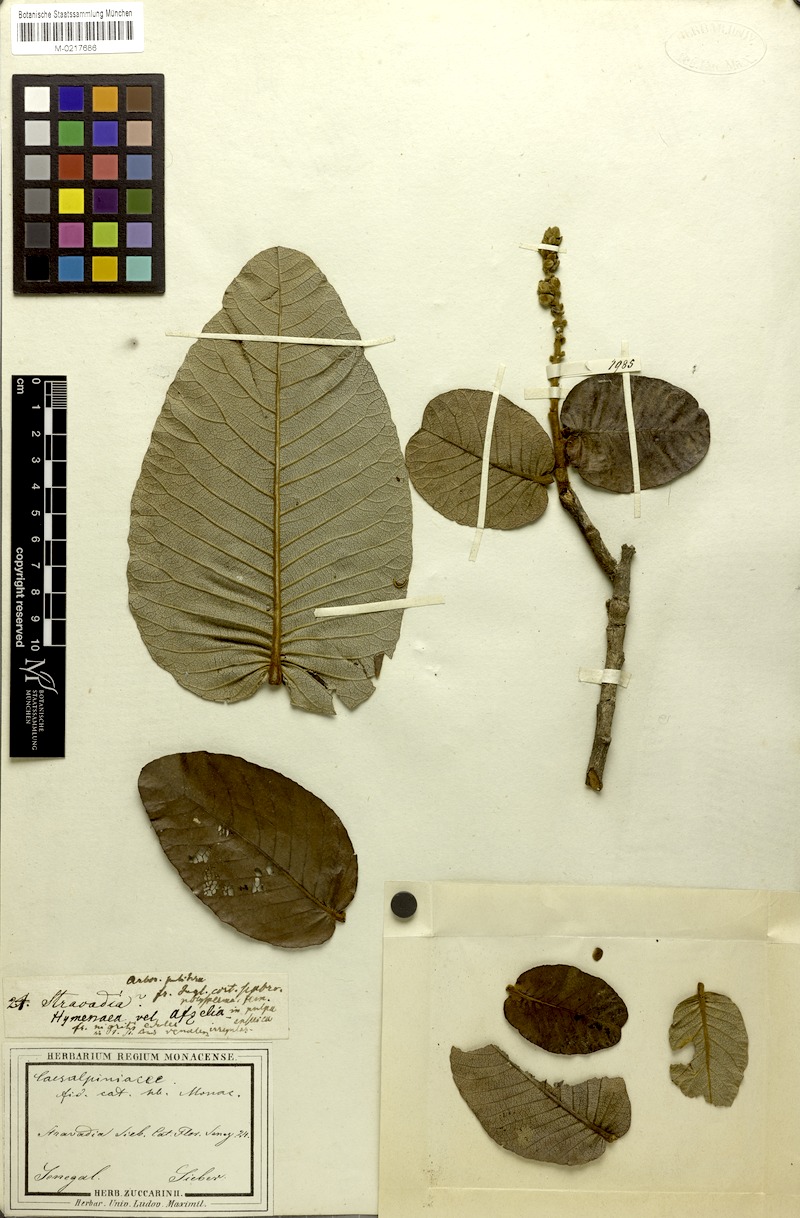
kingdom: Plantae
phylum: Tracheophyta
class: Magnoliopsida
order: Malpighiales
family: Chrysobalanaceae
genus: Neocarya
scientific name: Neocarya macrophylla
